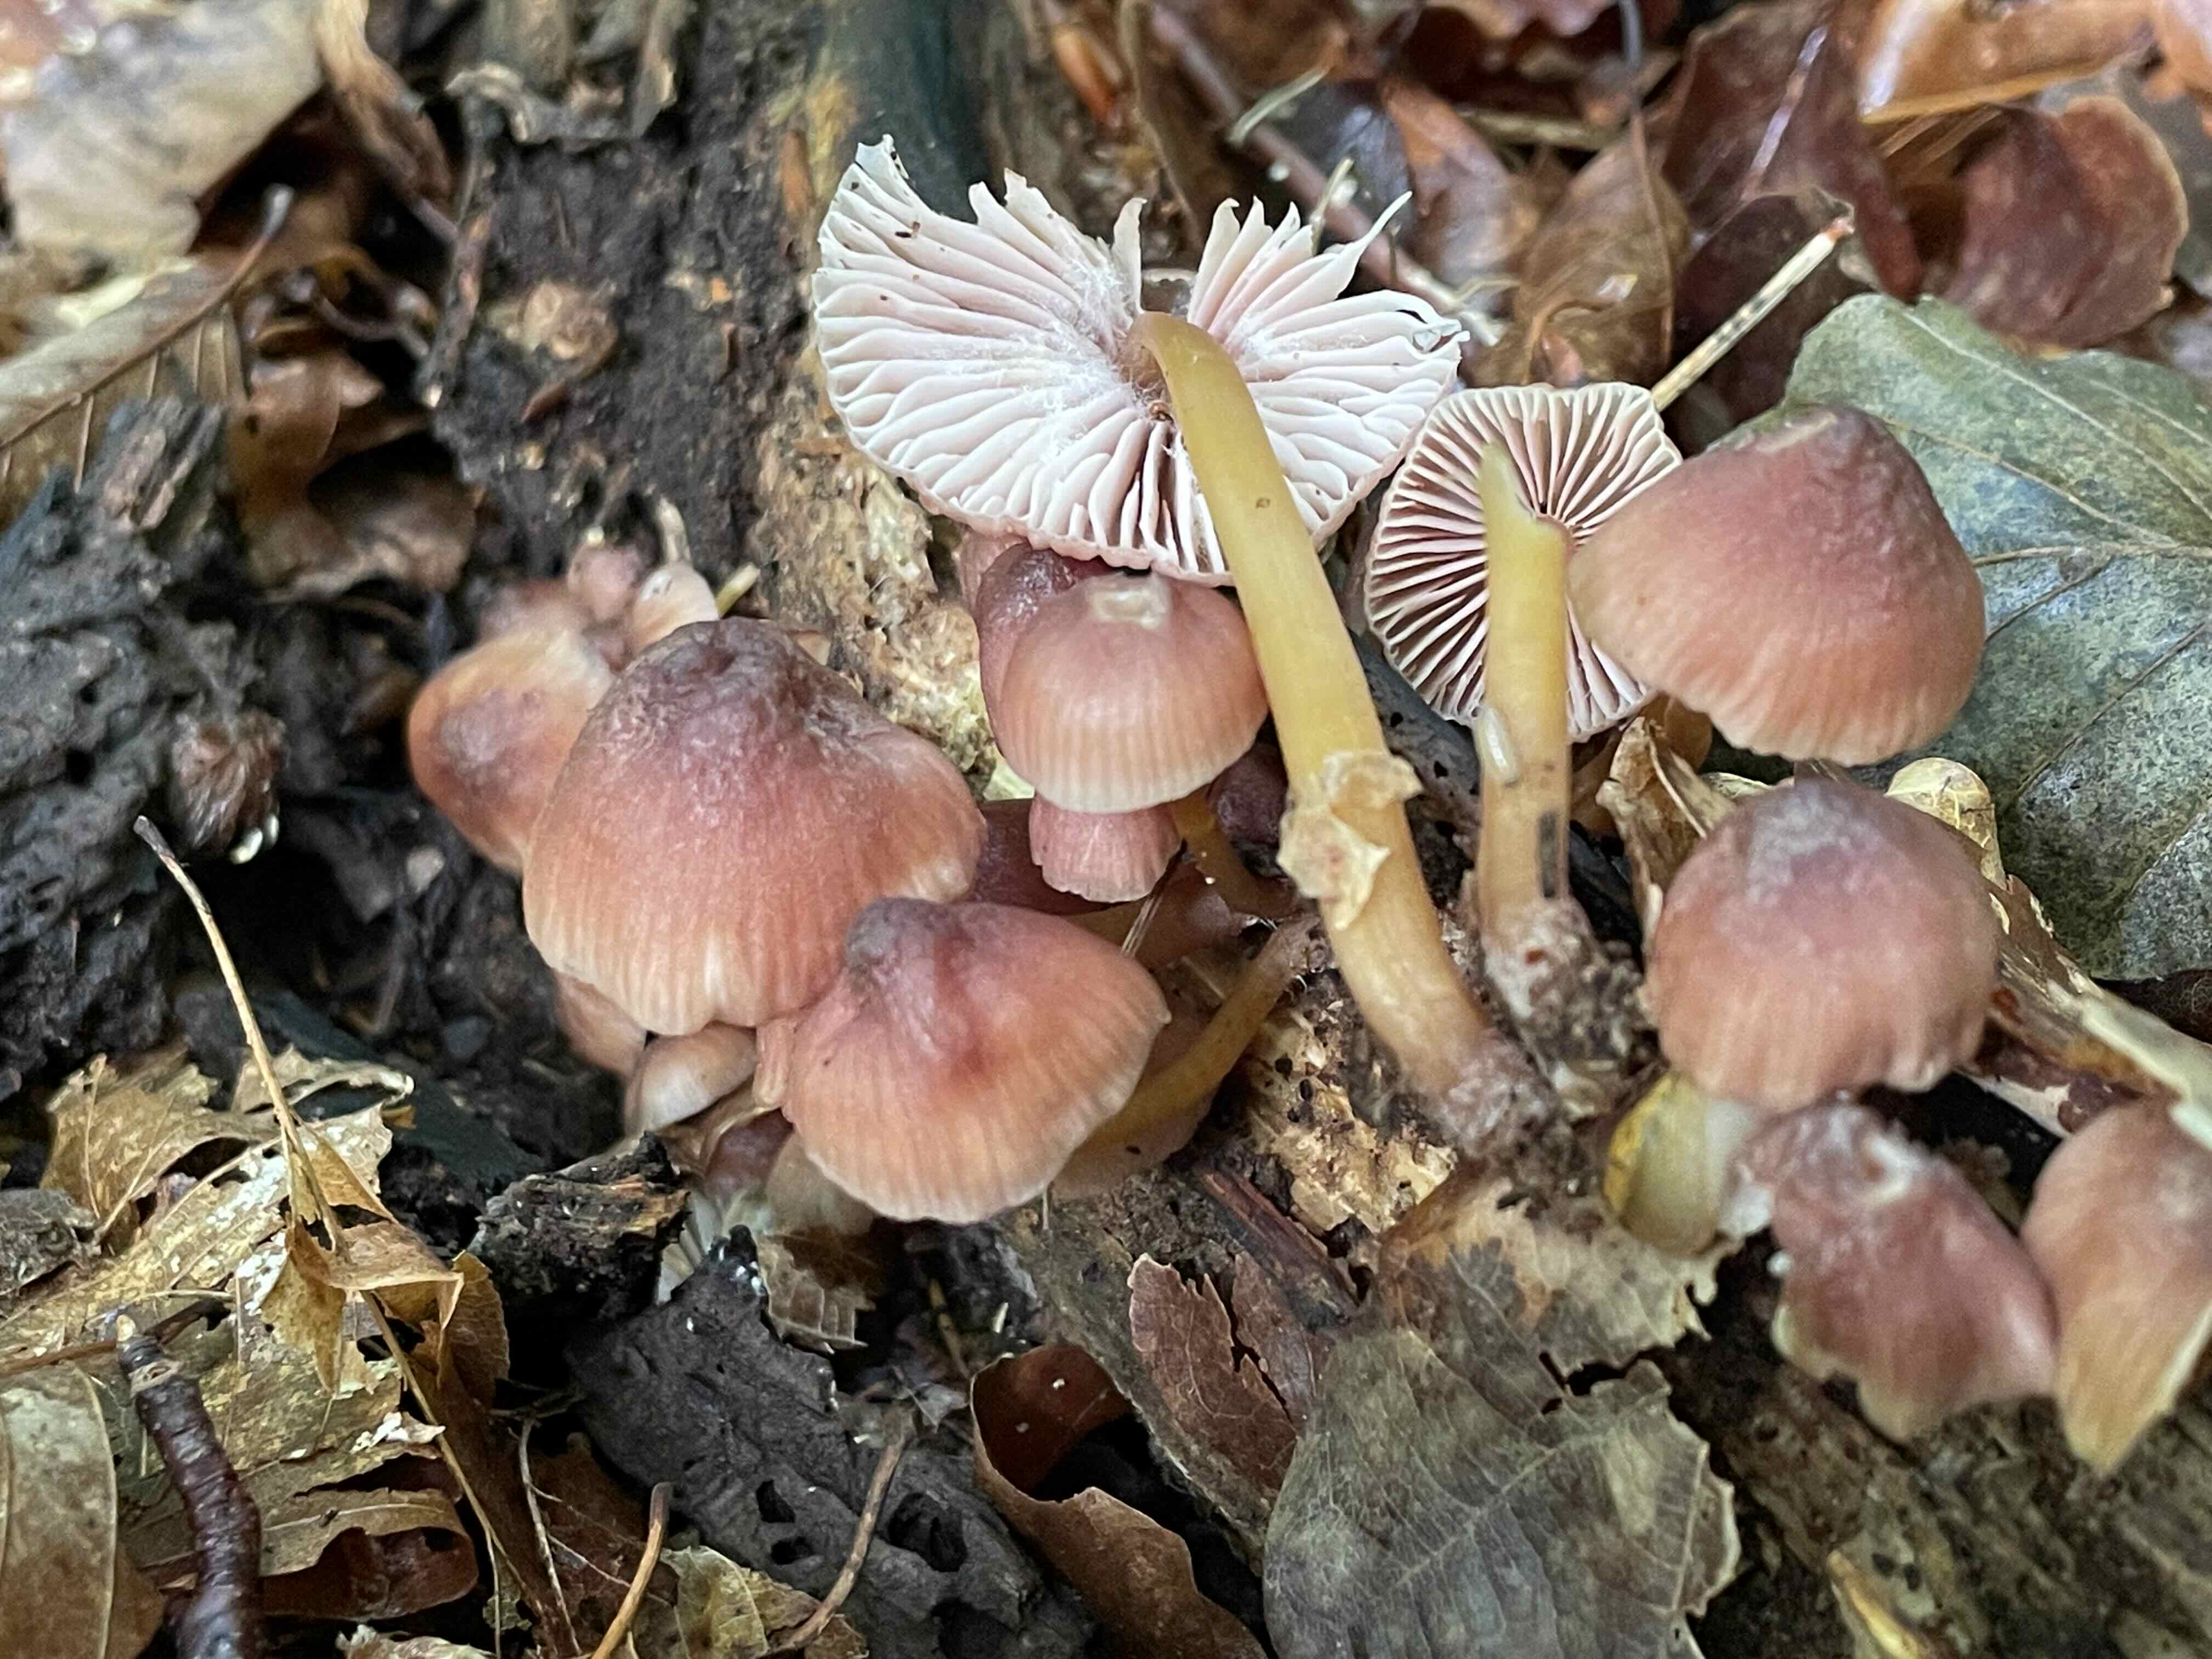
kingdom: Fungi
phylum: Basidiomycota
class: Agaricomycetes
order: Agaricales
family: Mycenaceae
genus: Mycena
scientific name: Mycena renati
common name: smuk huesvamp
